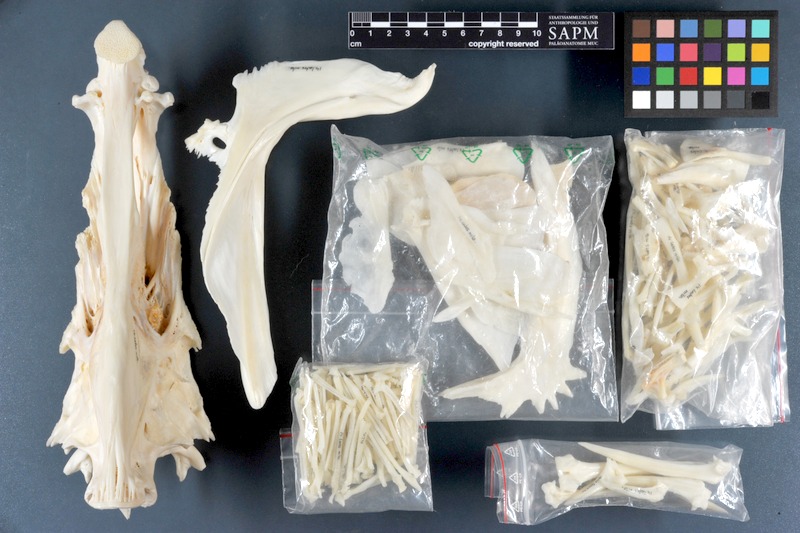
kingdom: Animalia
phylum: Chordata
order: Perciformes
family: Latidae
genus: Lates
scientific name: Lates niloticus
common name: Nile perch
